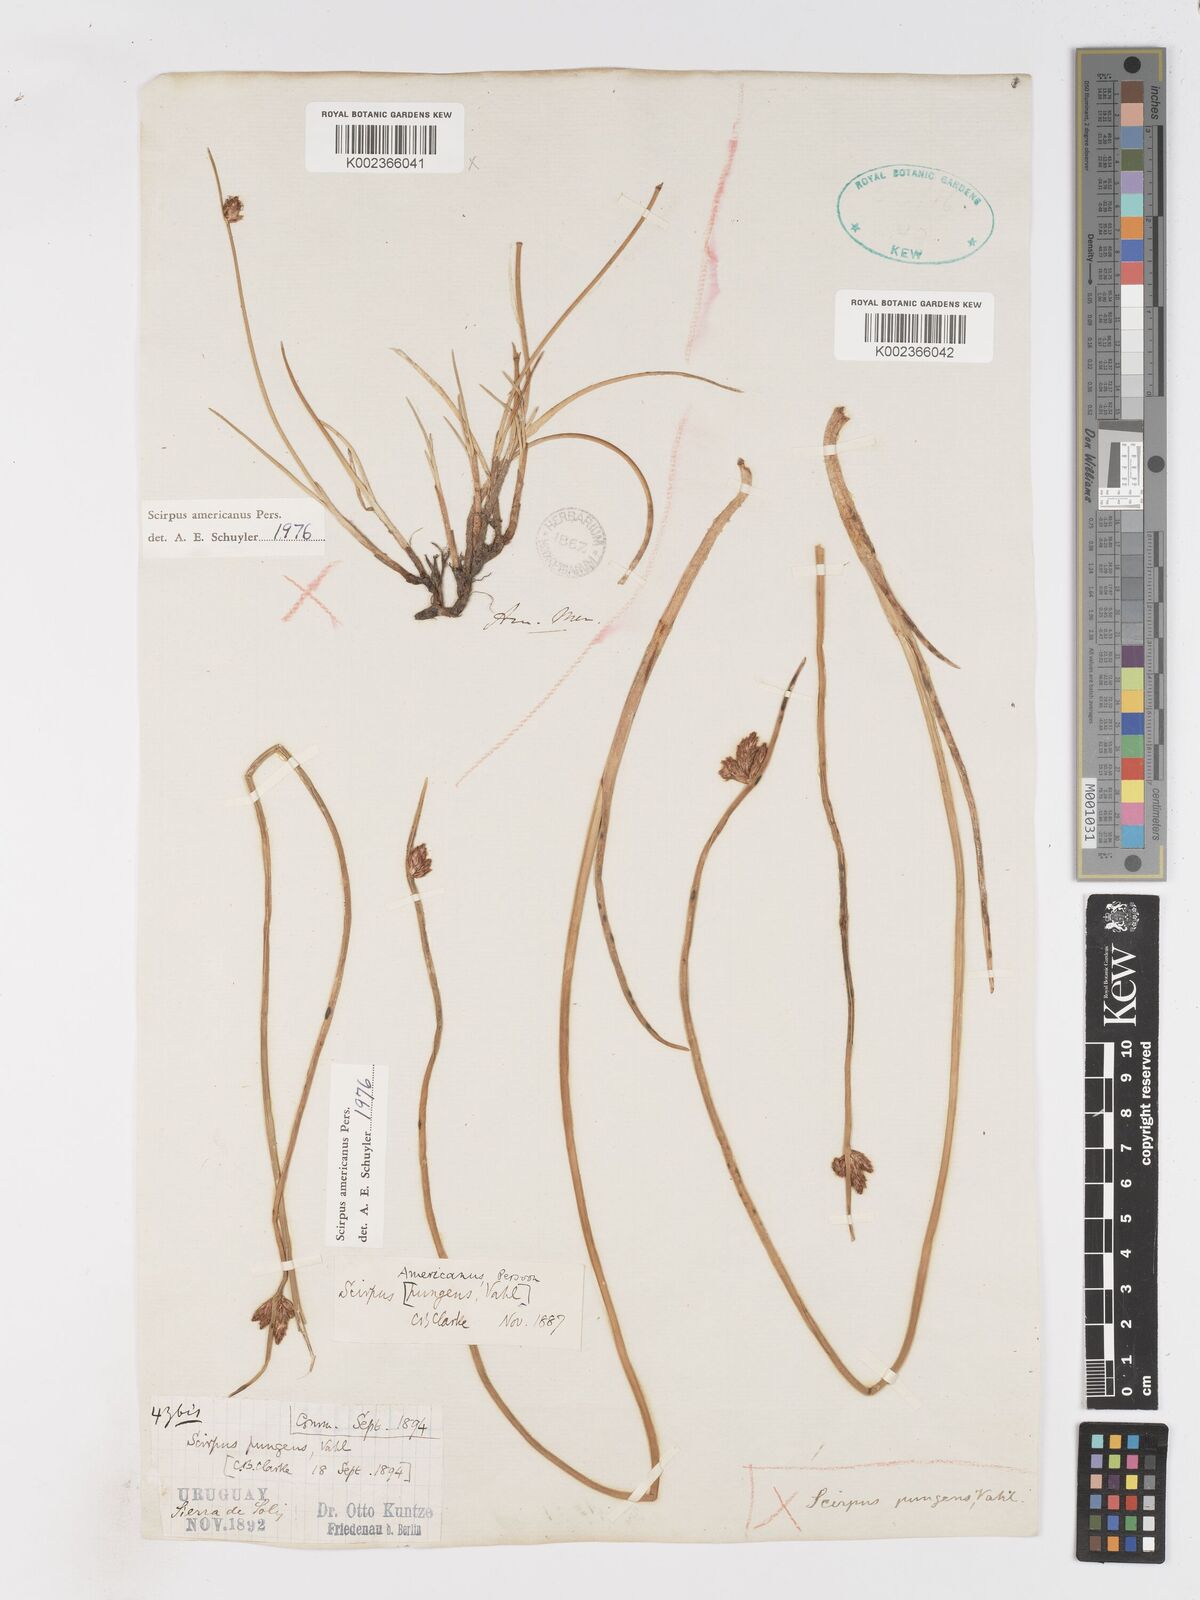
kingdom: Plantae
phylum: Tracheophyta
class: Liliopsida
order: Poales
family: Cyperaceae
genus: Schoenoplectus
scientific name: Schoenoplectus americanus
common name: American three-square bulrush
